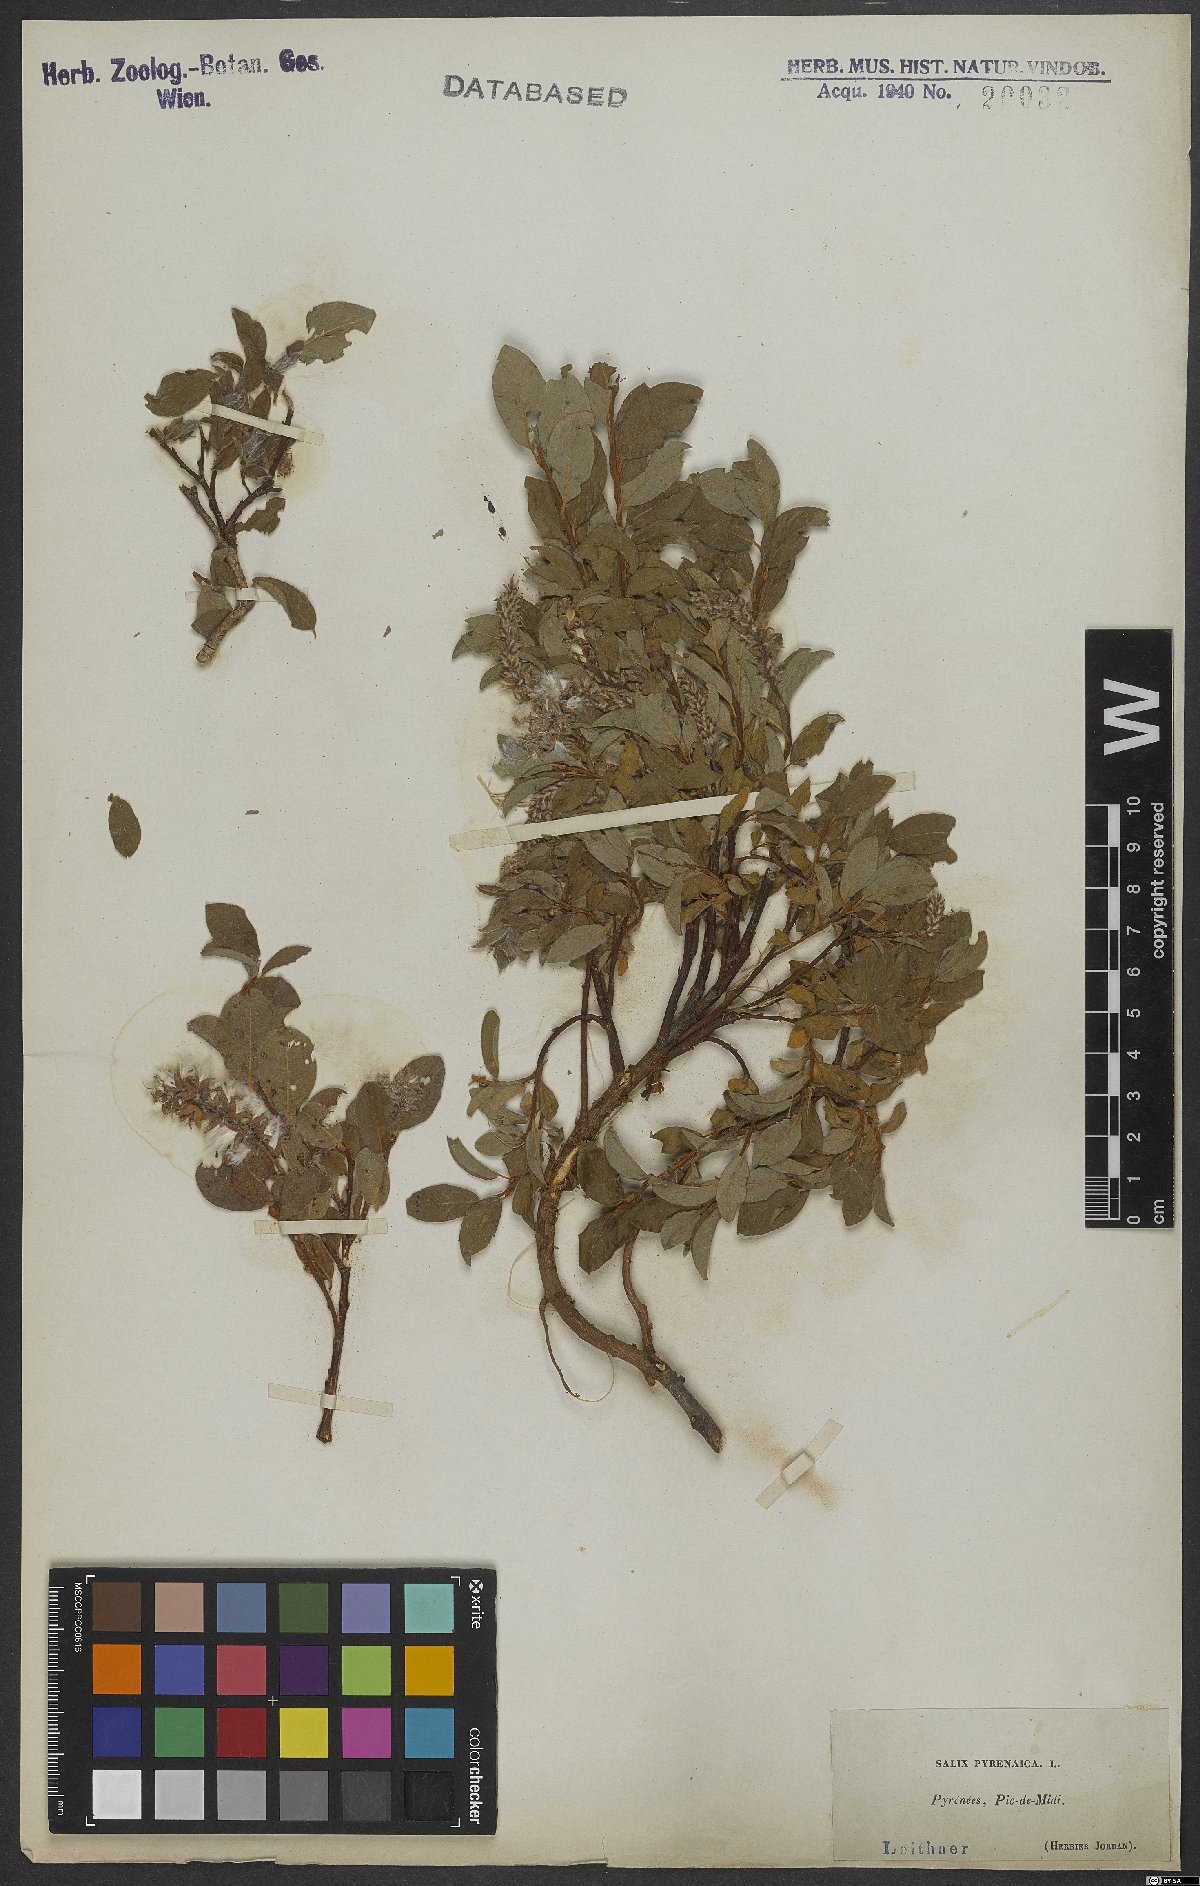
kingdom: Plantae
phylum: Tracheophyta
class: Magnoliopsida
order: Malpighiales
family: Salicaceae
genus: Salix
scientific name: Salix pyrenaica
